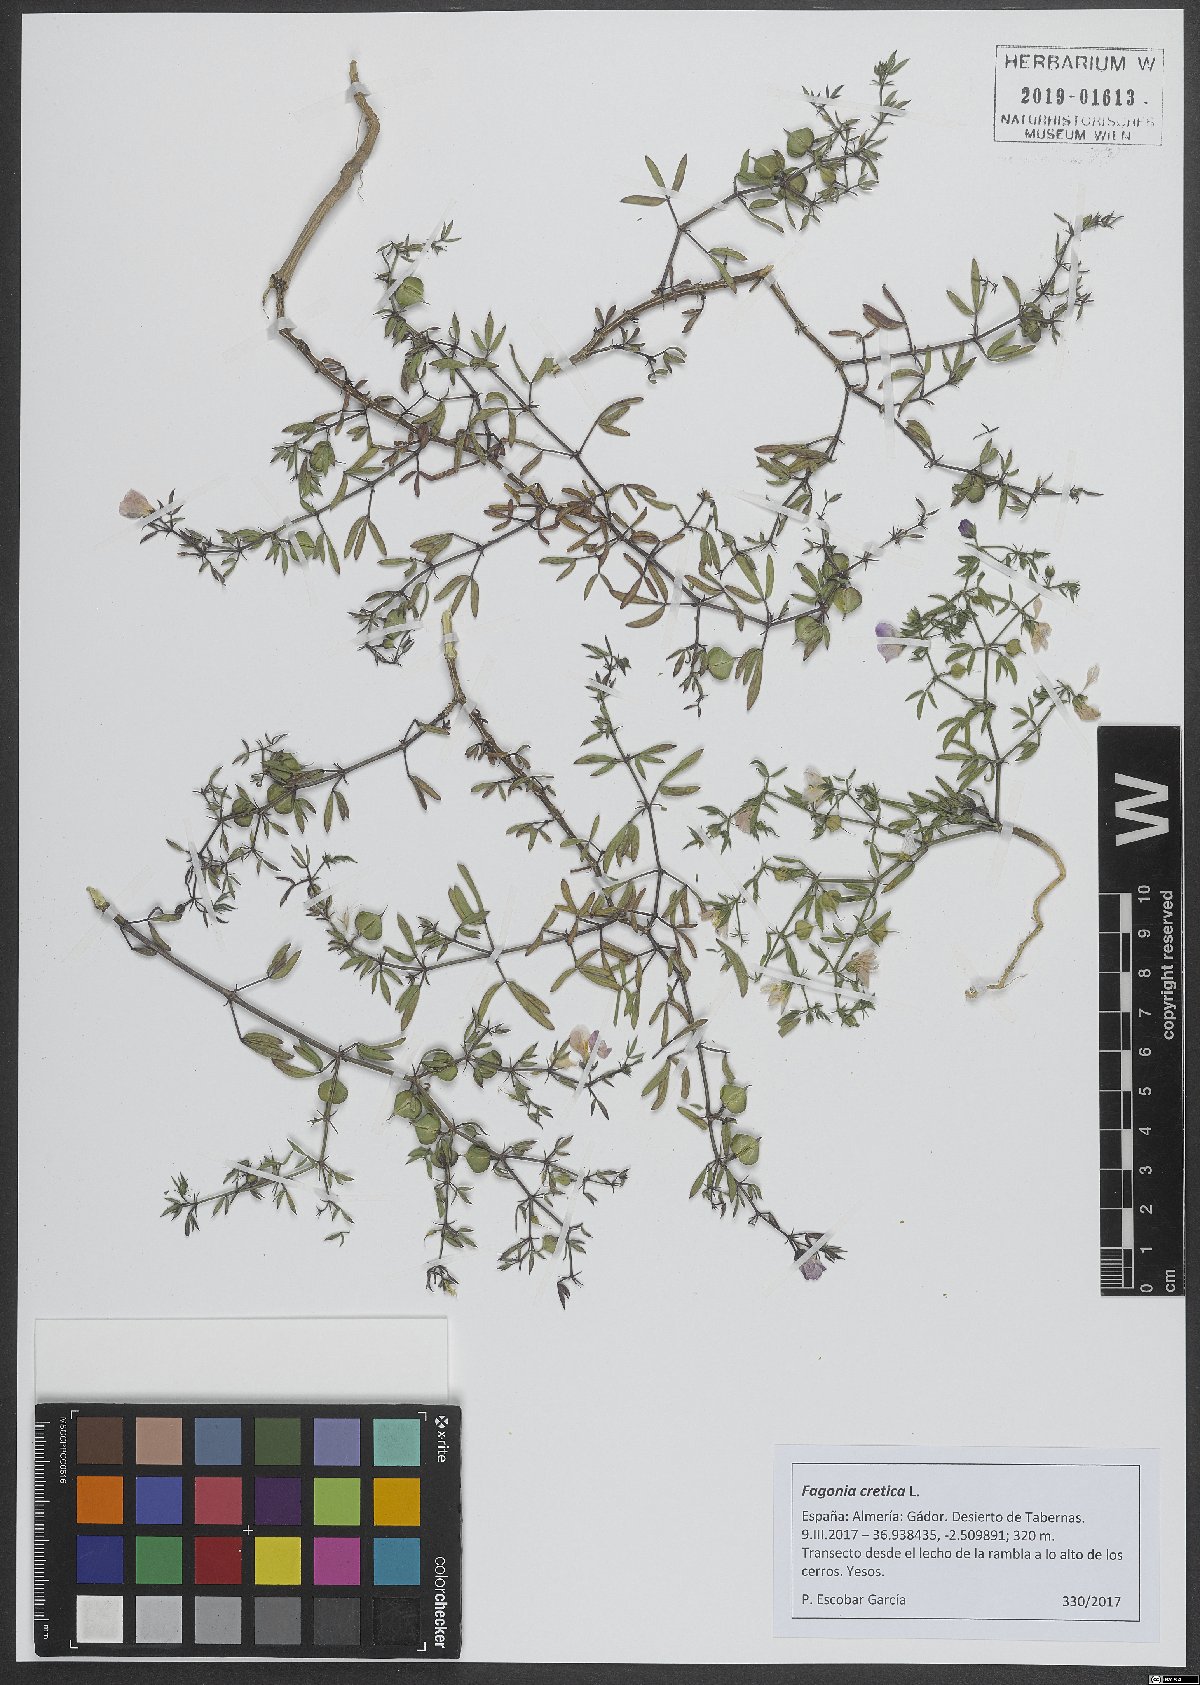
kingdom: Plantae
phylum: Tracheophyta
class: Magnoliopsida
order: Zygophyllales
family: Zygophyllaceae
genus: Fagonia
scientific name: Fagonia cretica
